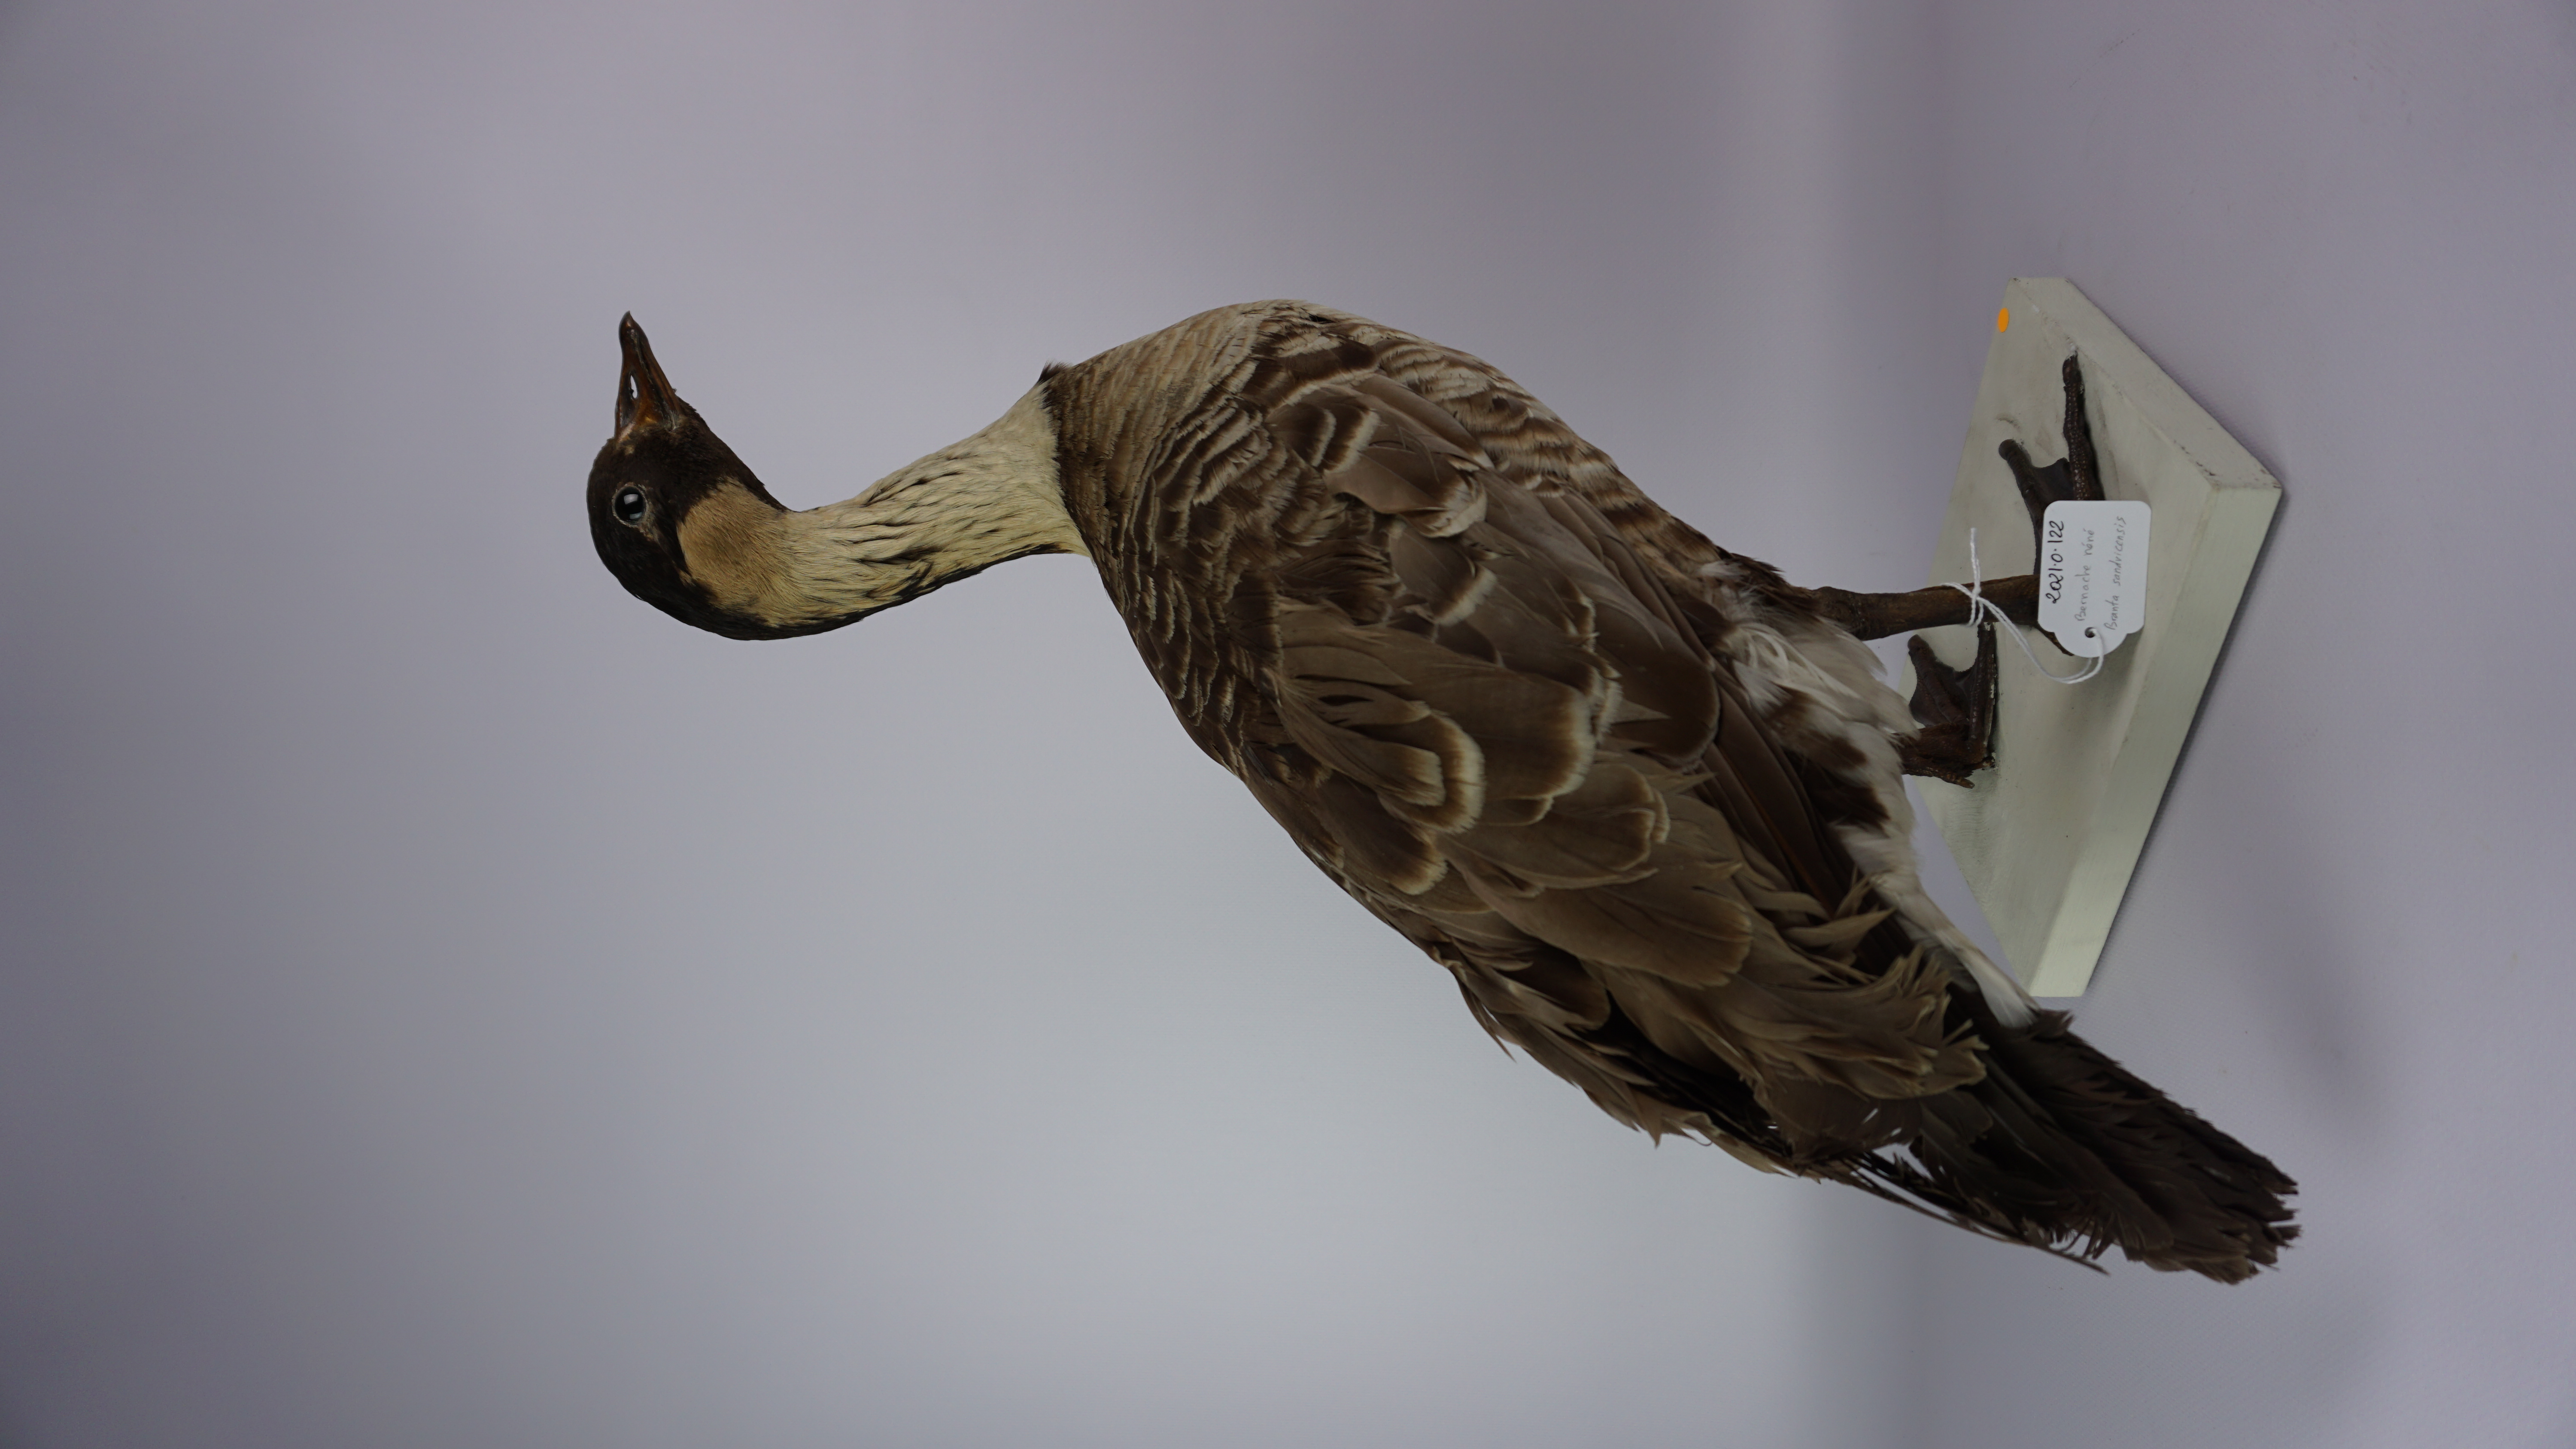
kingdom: Animalia
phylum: Chordata
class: Aves
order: Anseriformes
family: Anatidae
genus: Branta
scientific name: Branta sandvicensis
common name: Nene
